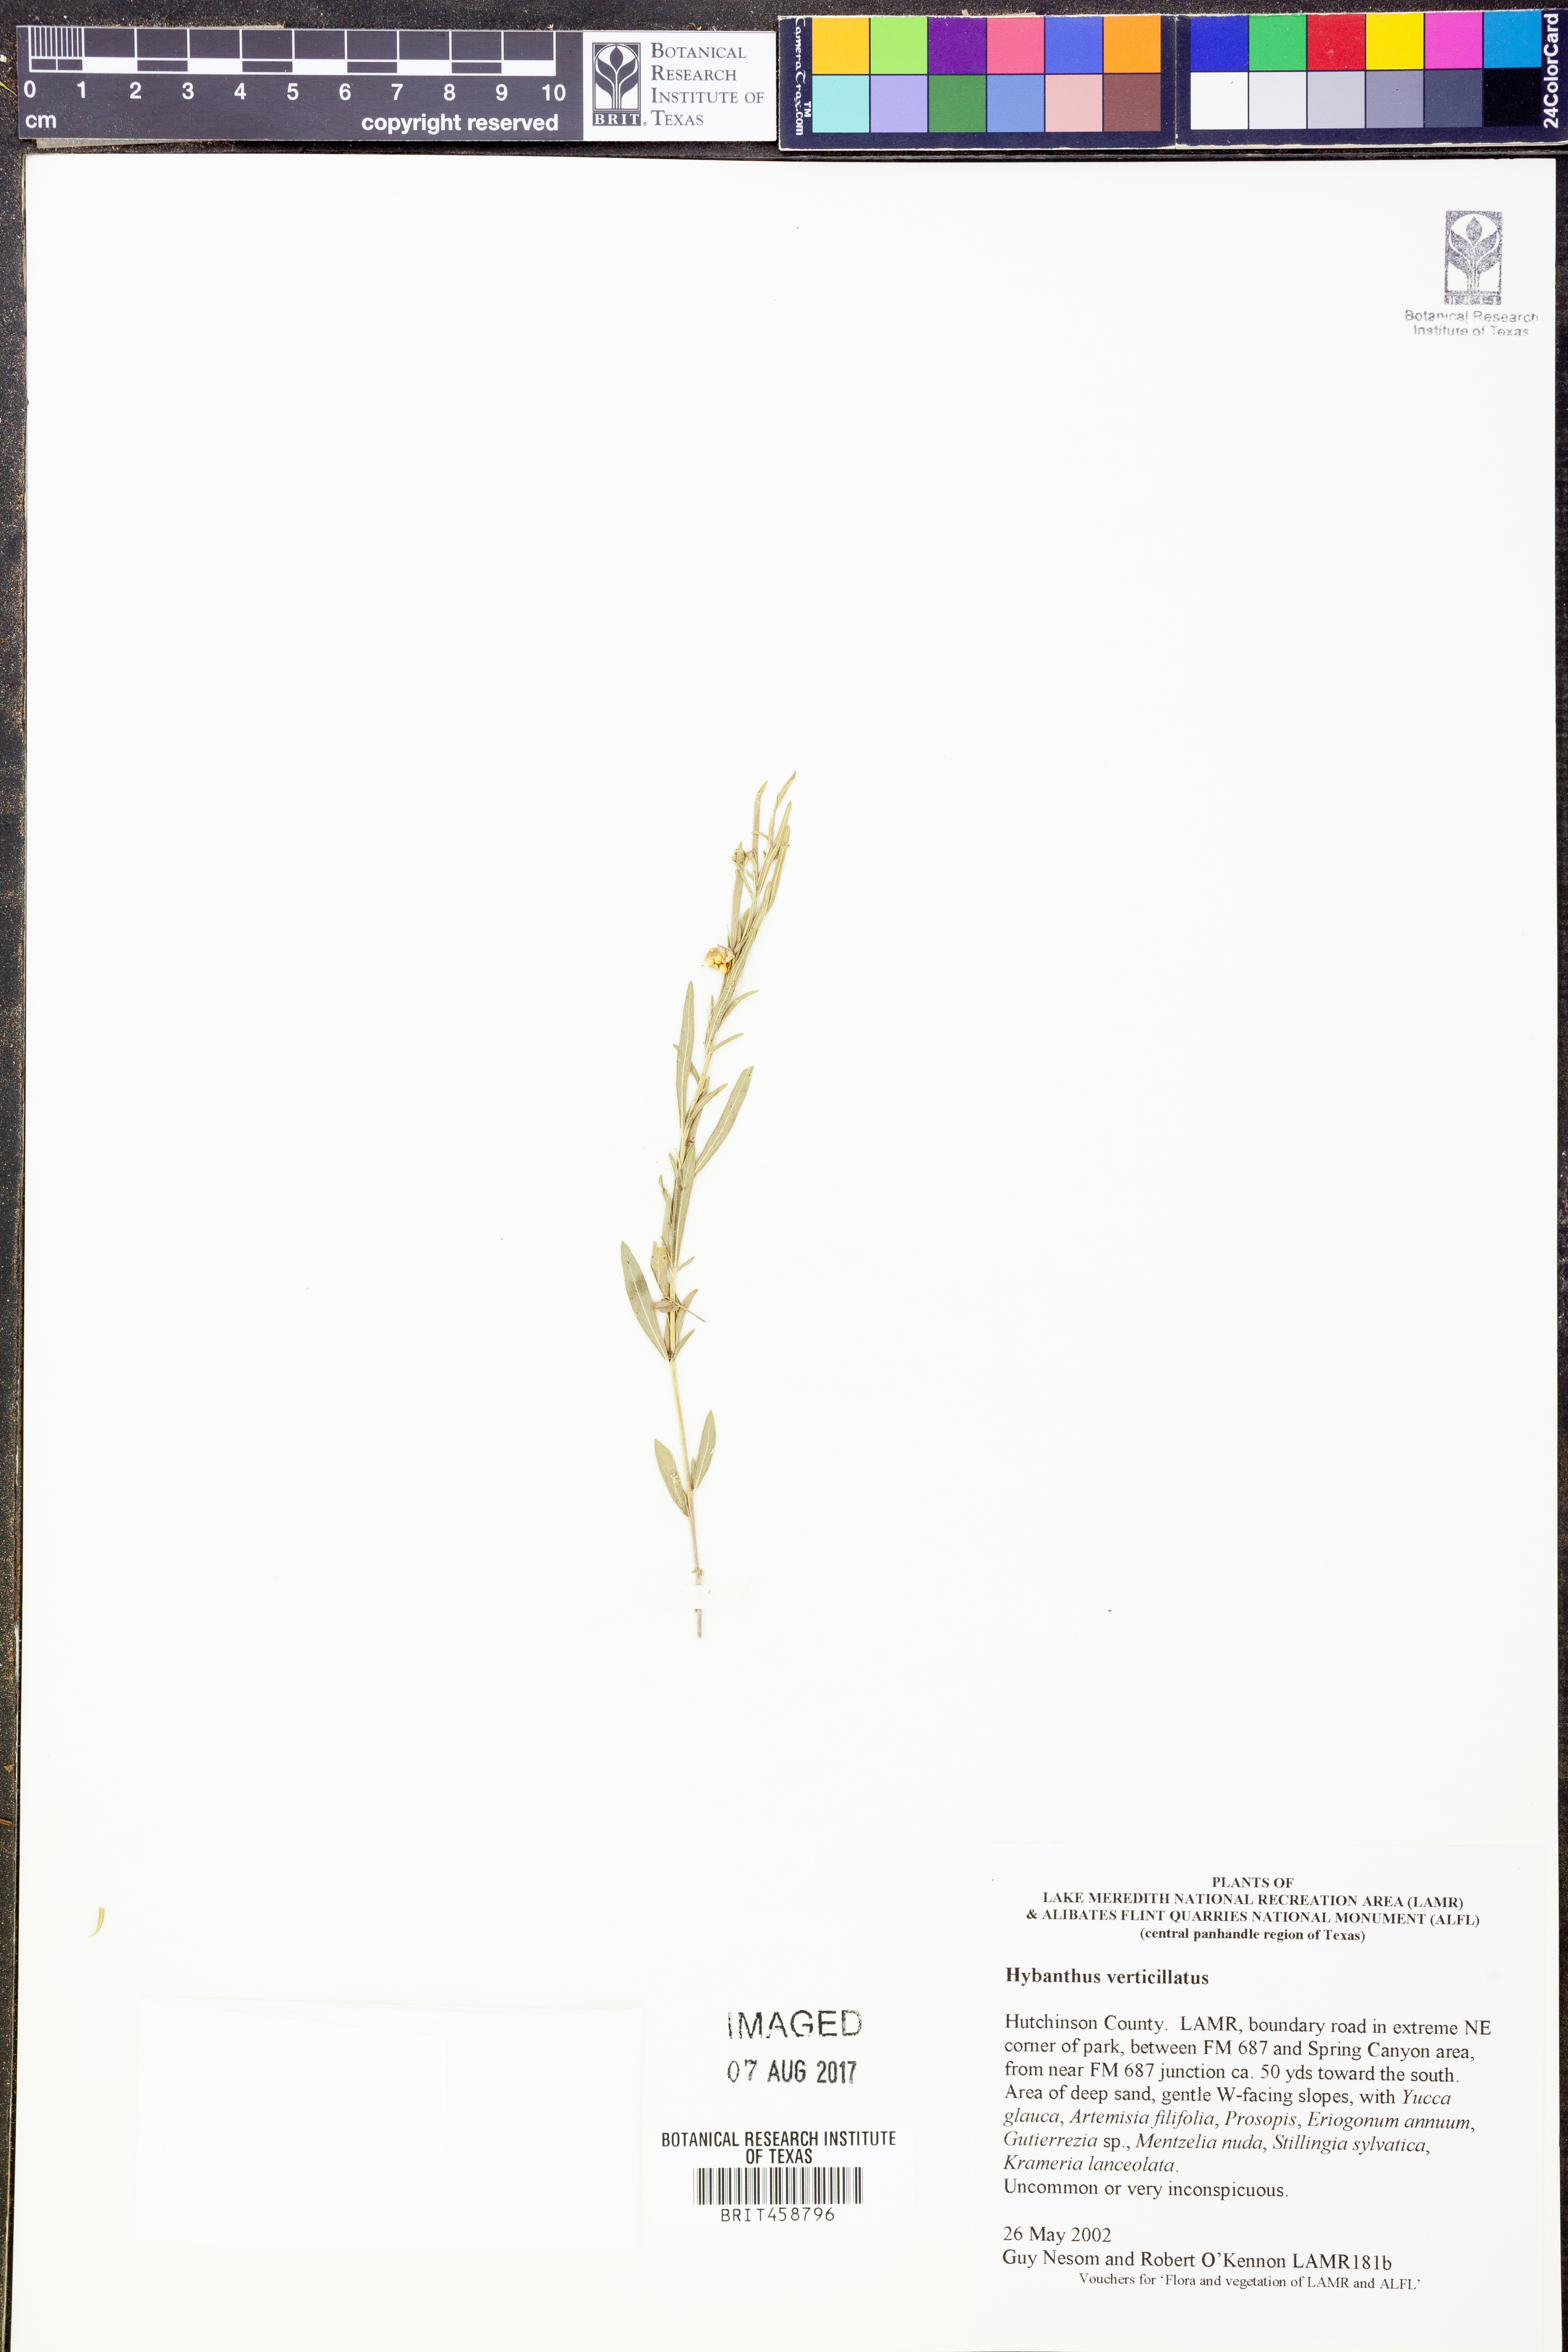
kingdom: Plantae
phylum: Tracheophyta
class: Magnoliopsida
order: Malpighiales
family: Violaceae
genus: Pombalia
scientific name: Pombalia verticillata
